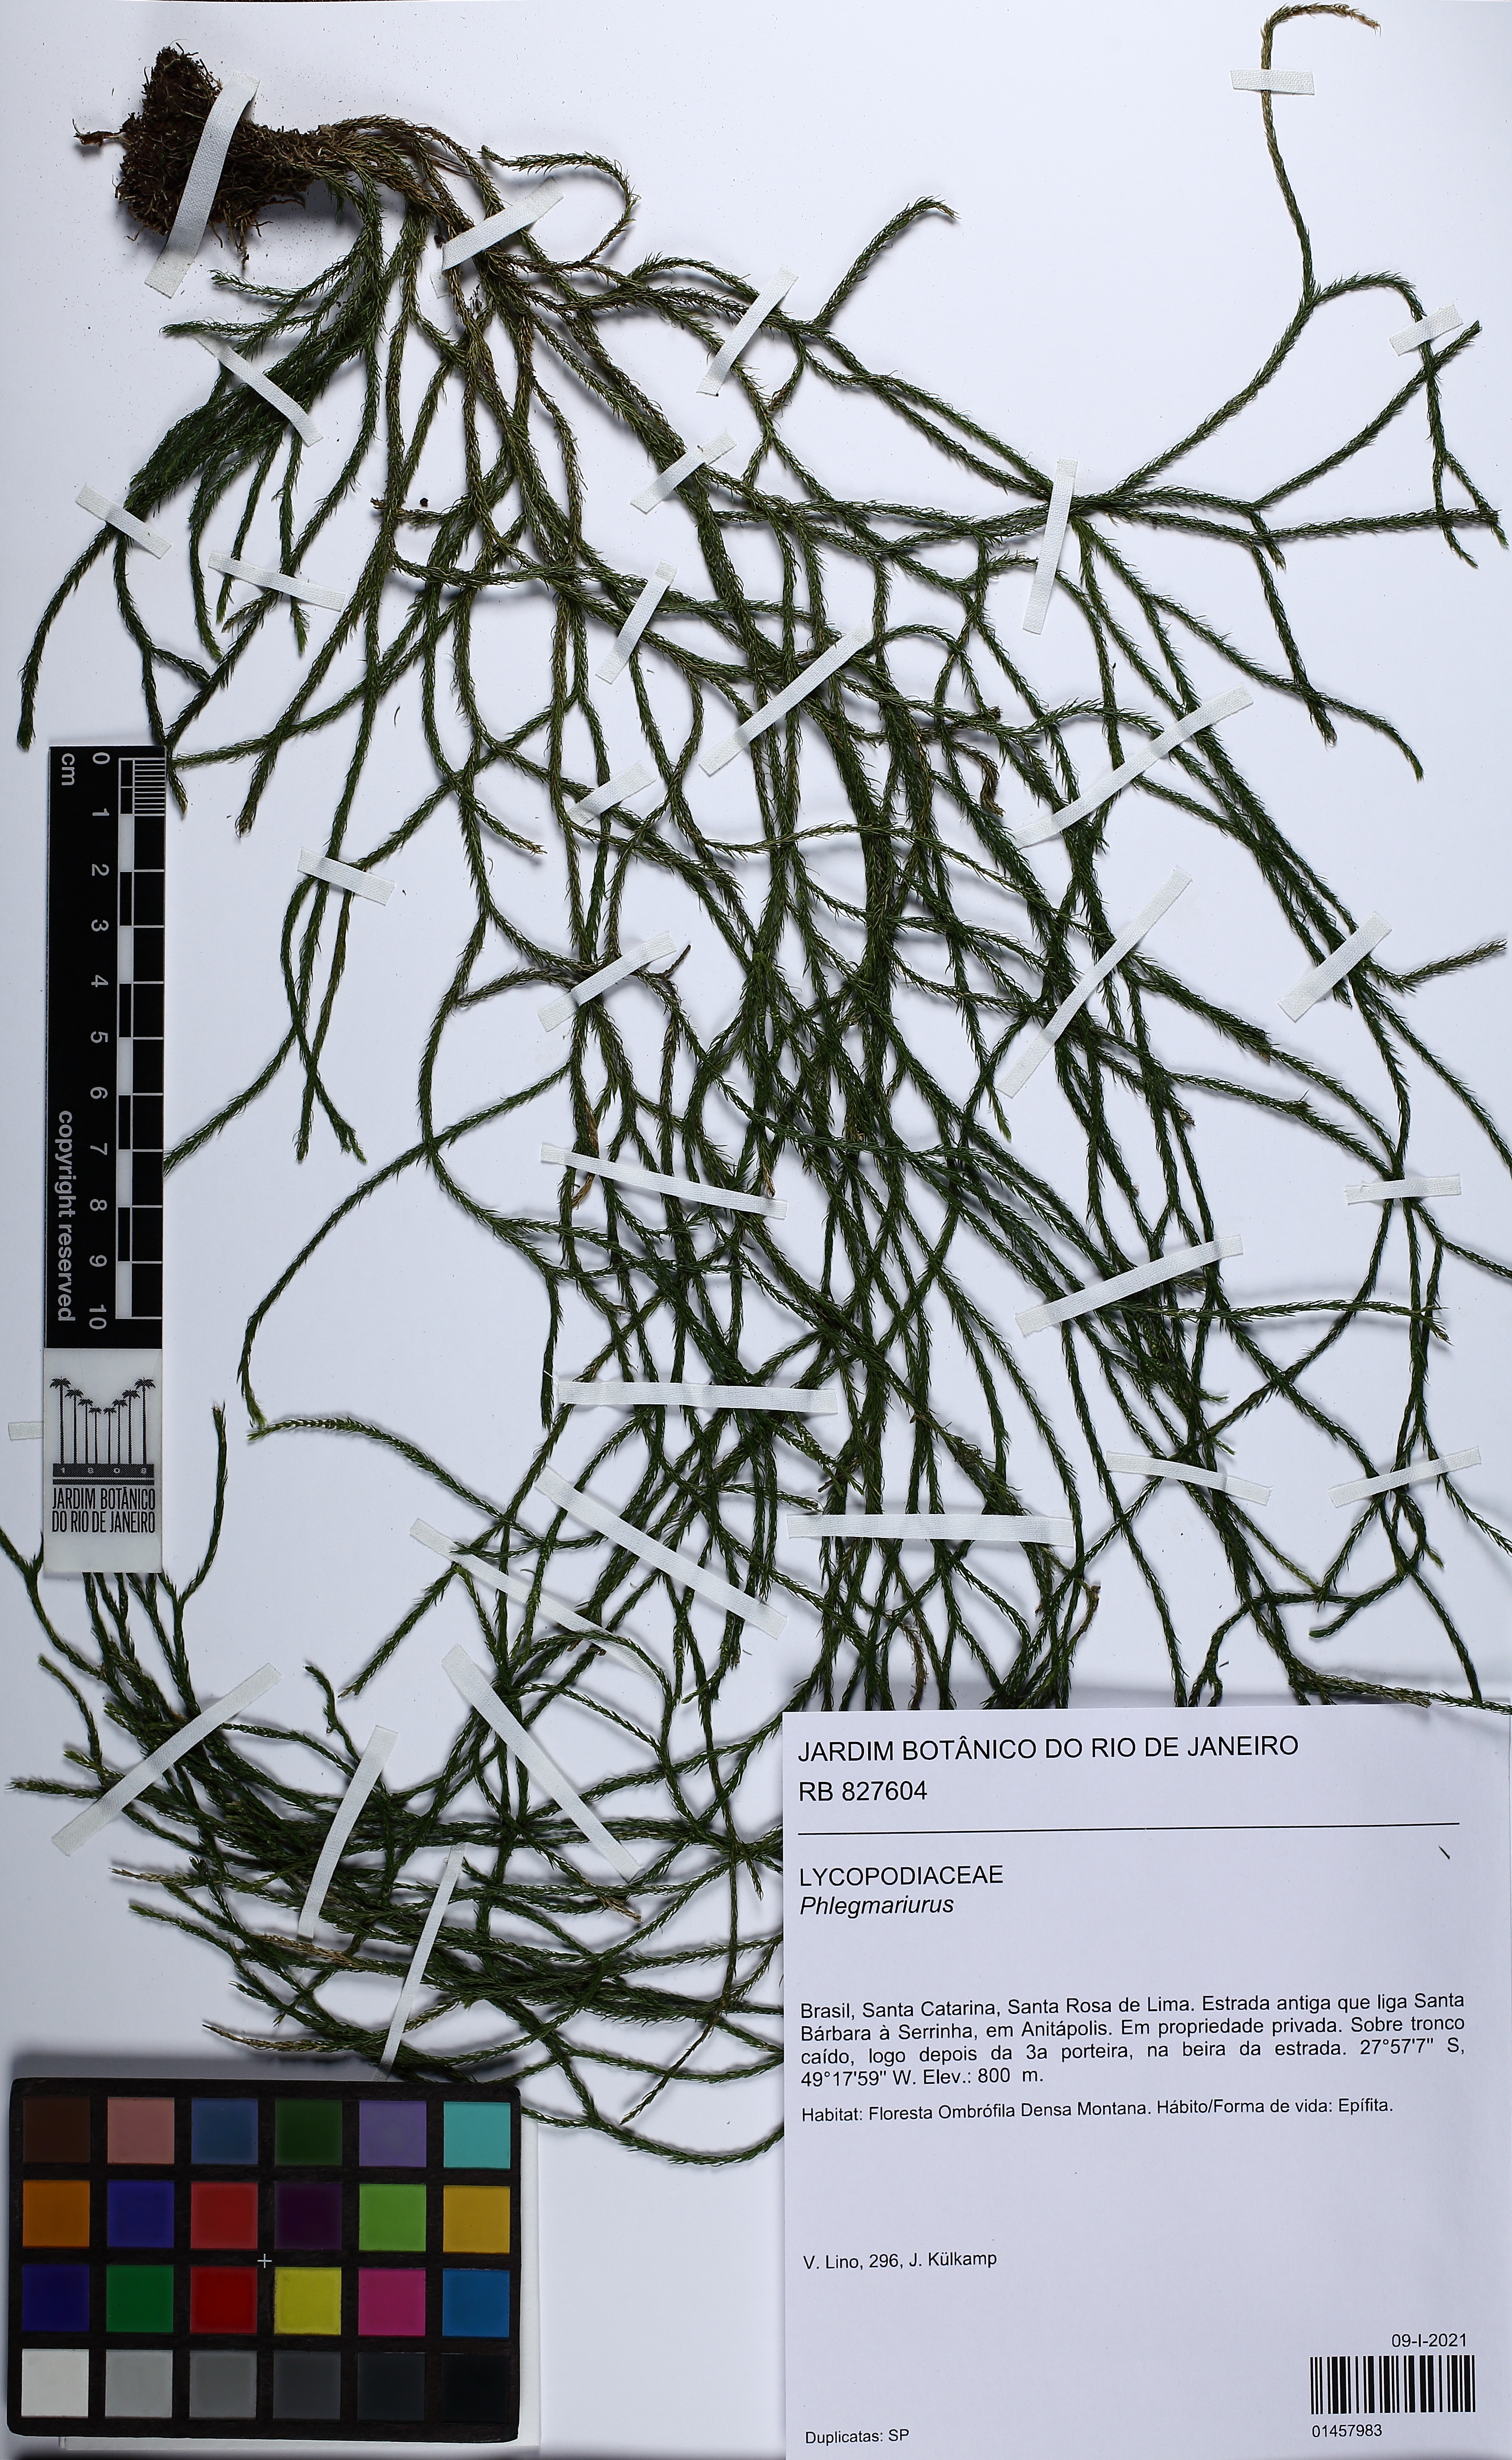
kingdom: Plantae
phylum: Tracheophyta
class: Lycopodiopsida
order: Lycopodiales
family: Lycopodiaceae
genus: Phlegmariurus
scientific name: Phlegmariurus
